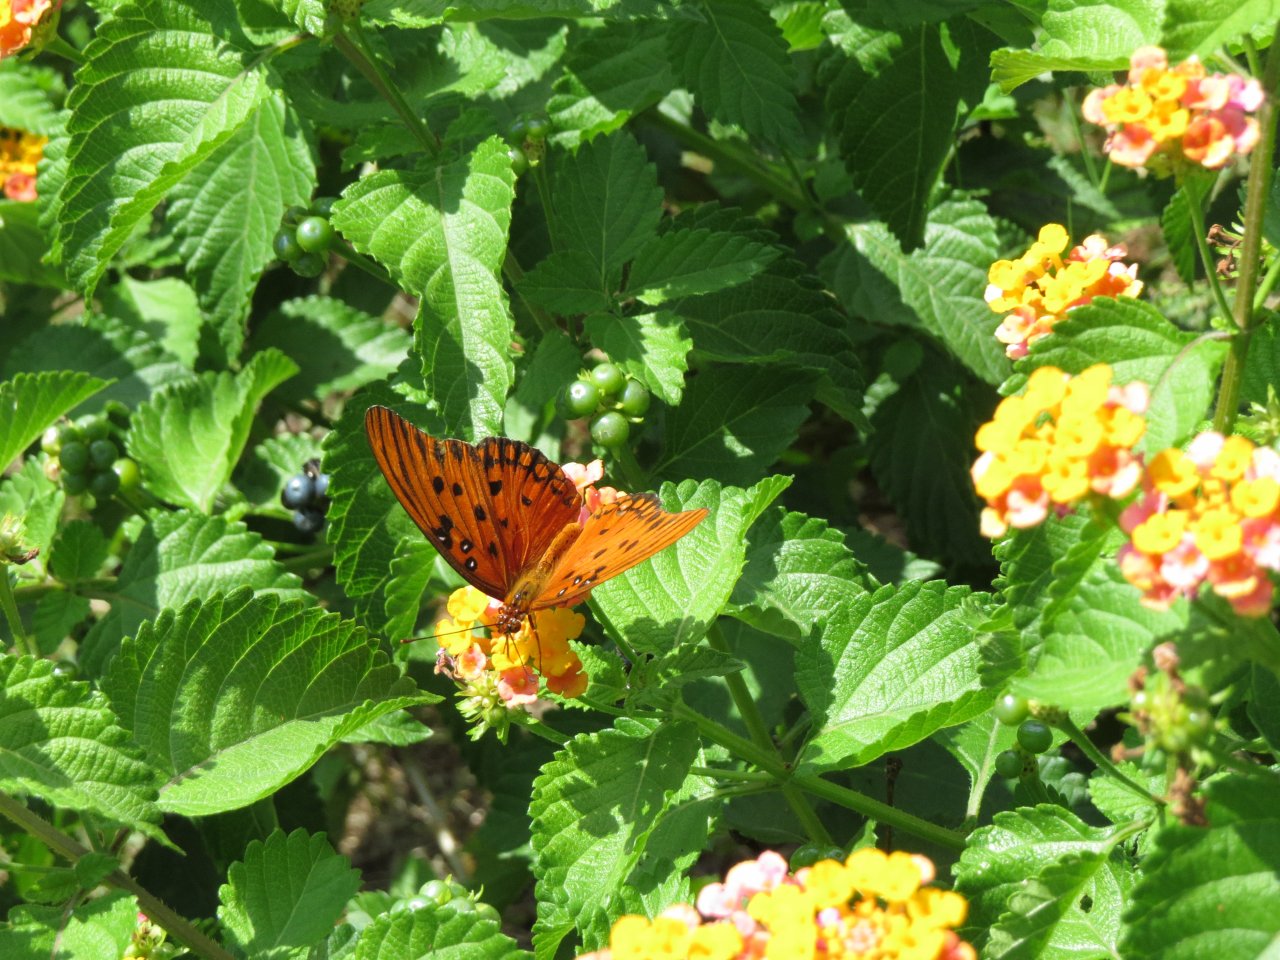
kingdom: Animalia
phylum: Arthropoda
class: Insecta
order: Lepidoptera
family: Nymphalidae
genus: Dione
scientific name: Dione vanillae
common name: Gulf Fritillary
